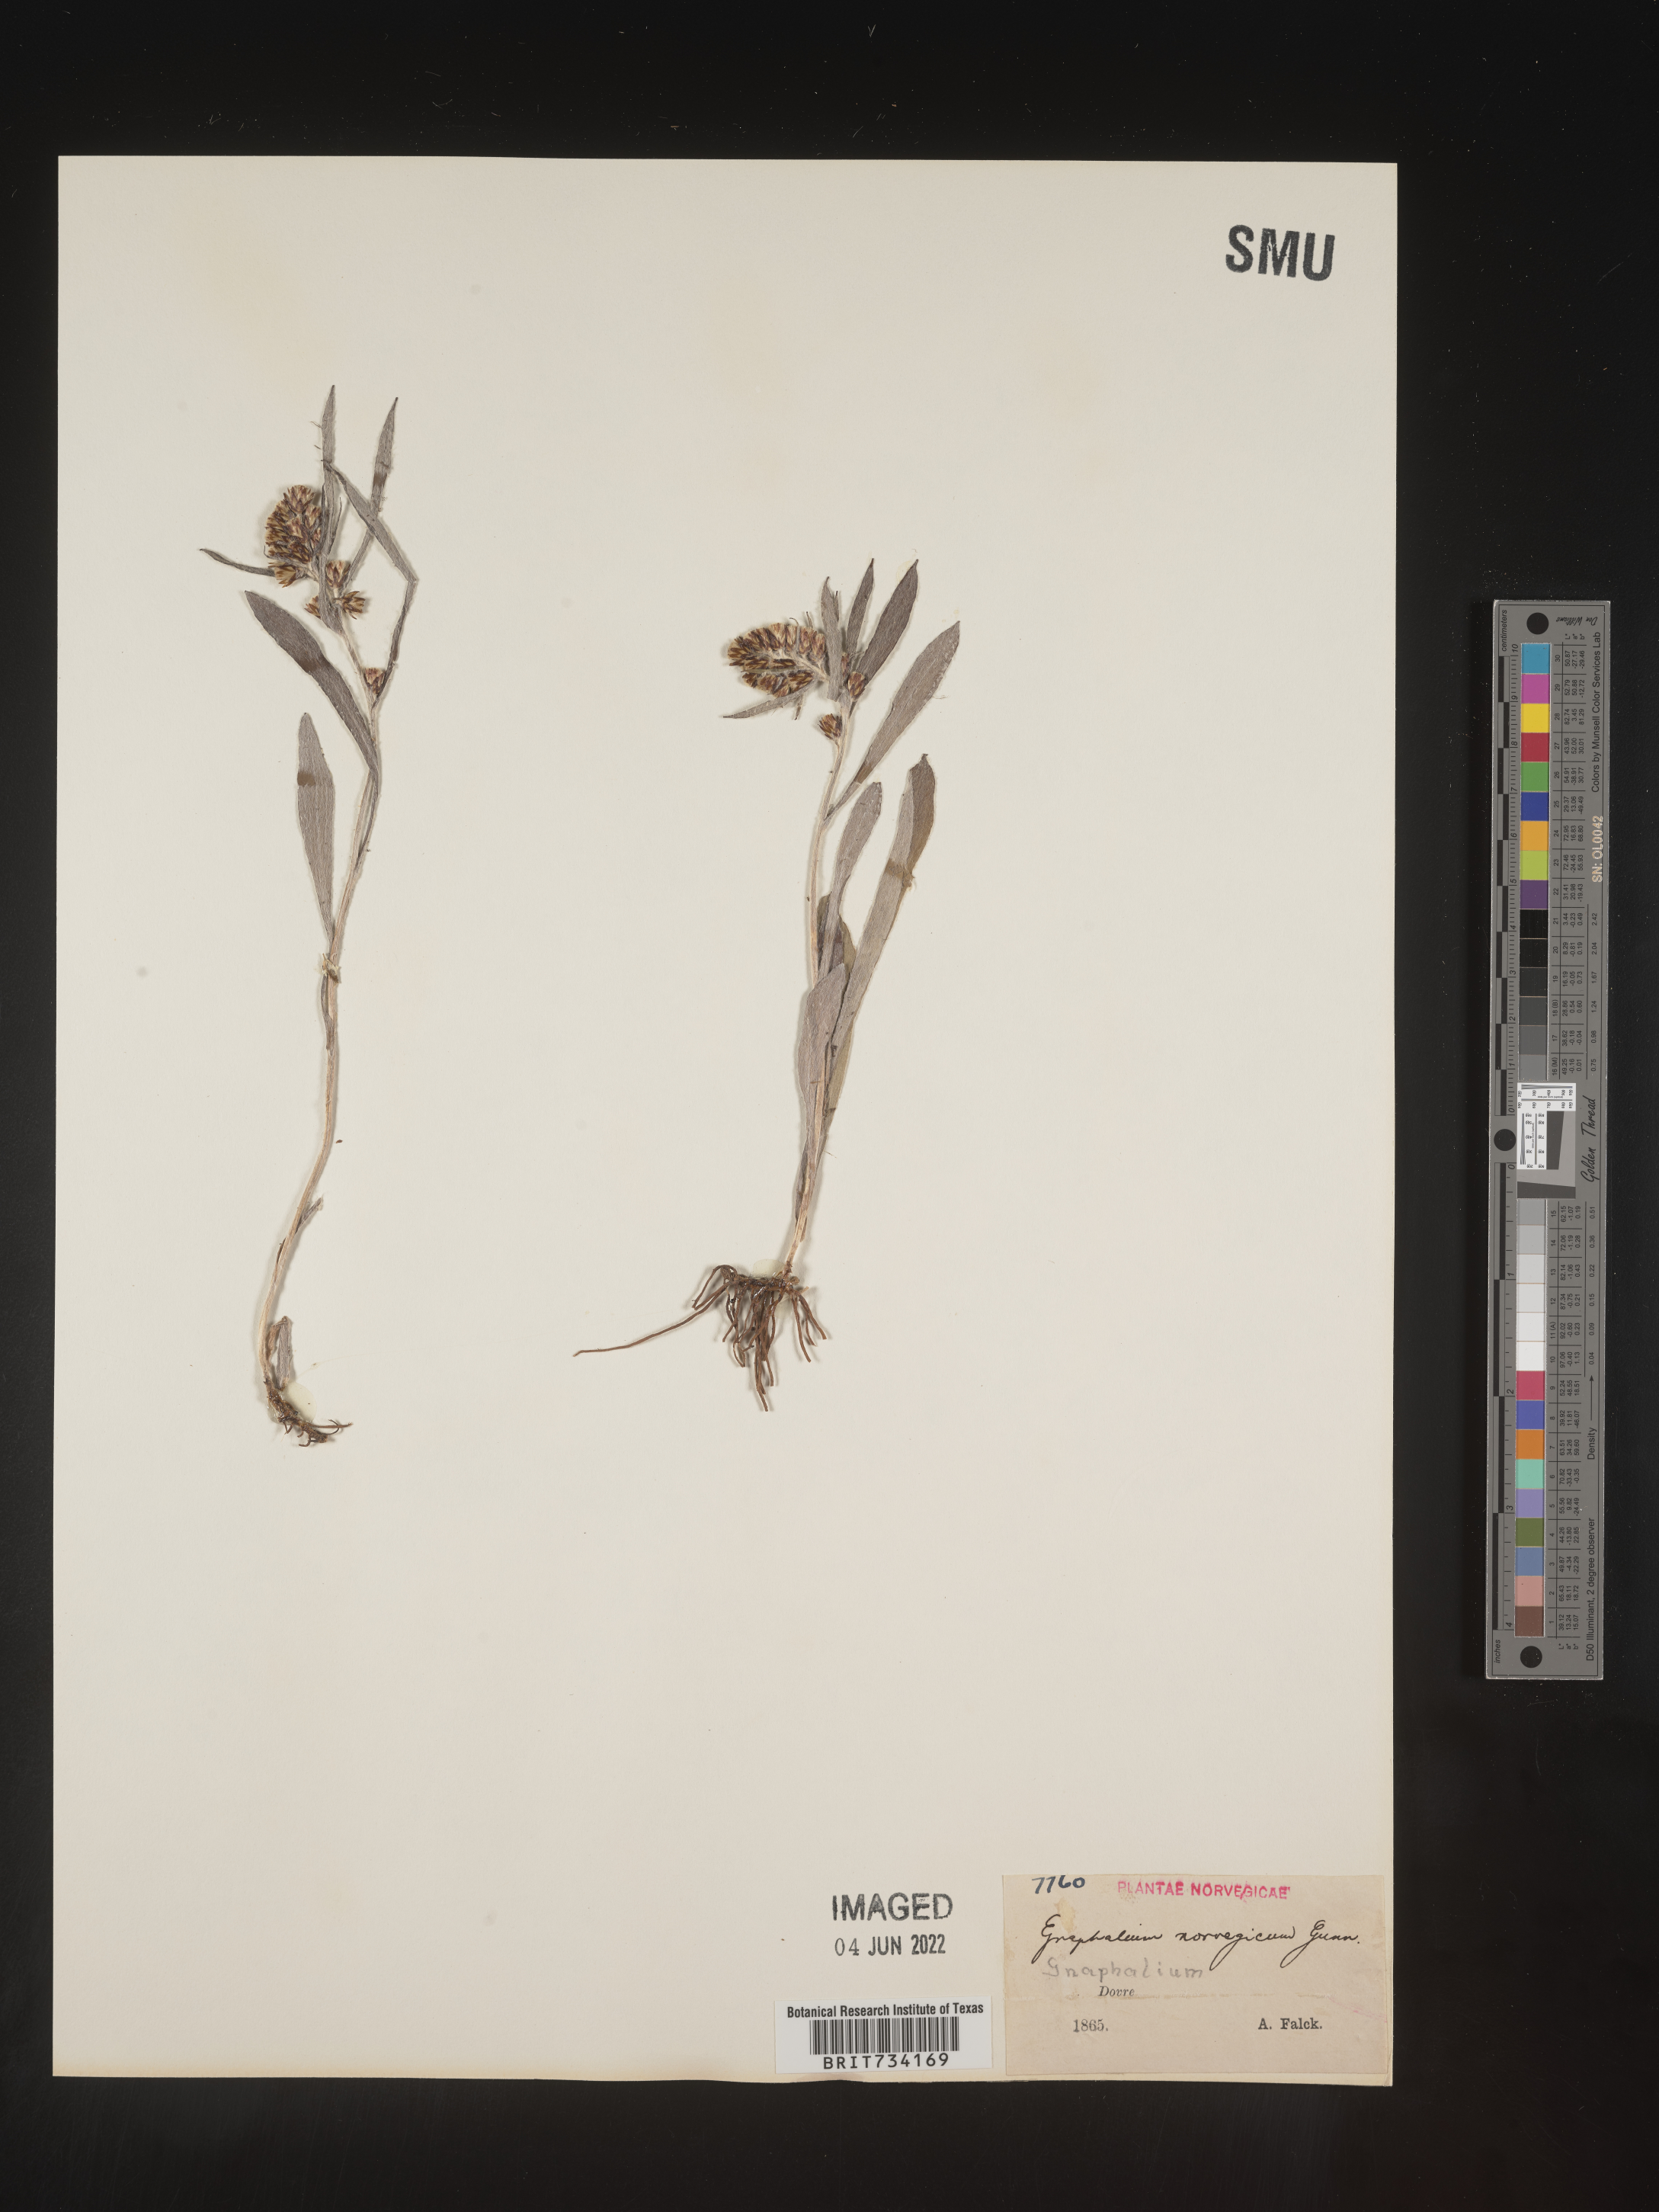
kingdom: Plantae
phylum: Tracheophyta
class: Magnoliopsida
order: Asterales
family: Asteraceae
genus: Omalotheca
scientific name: Omalotheca norvegica
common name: Norwegian arctic-cudweed
